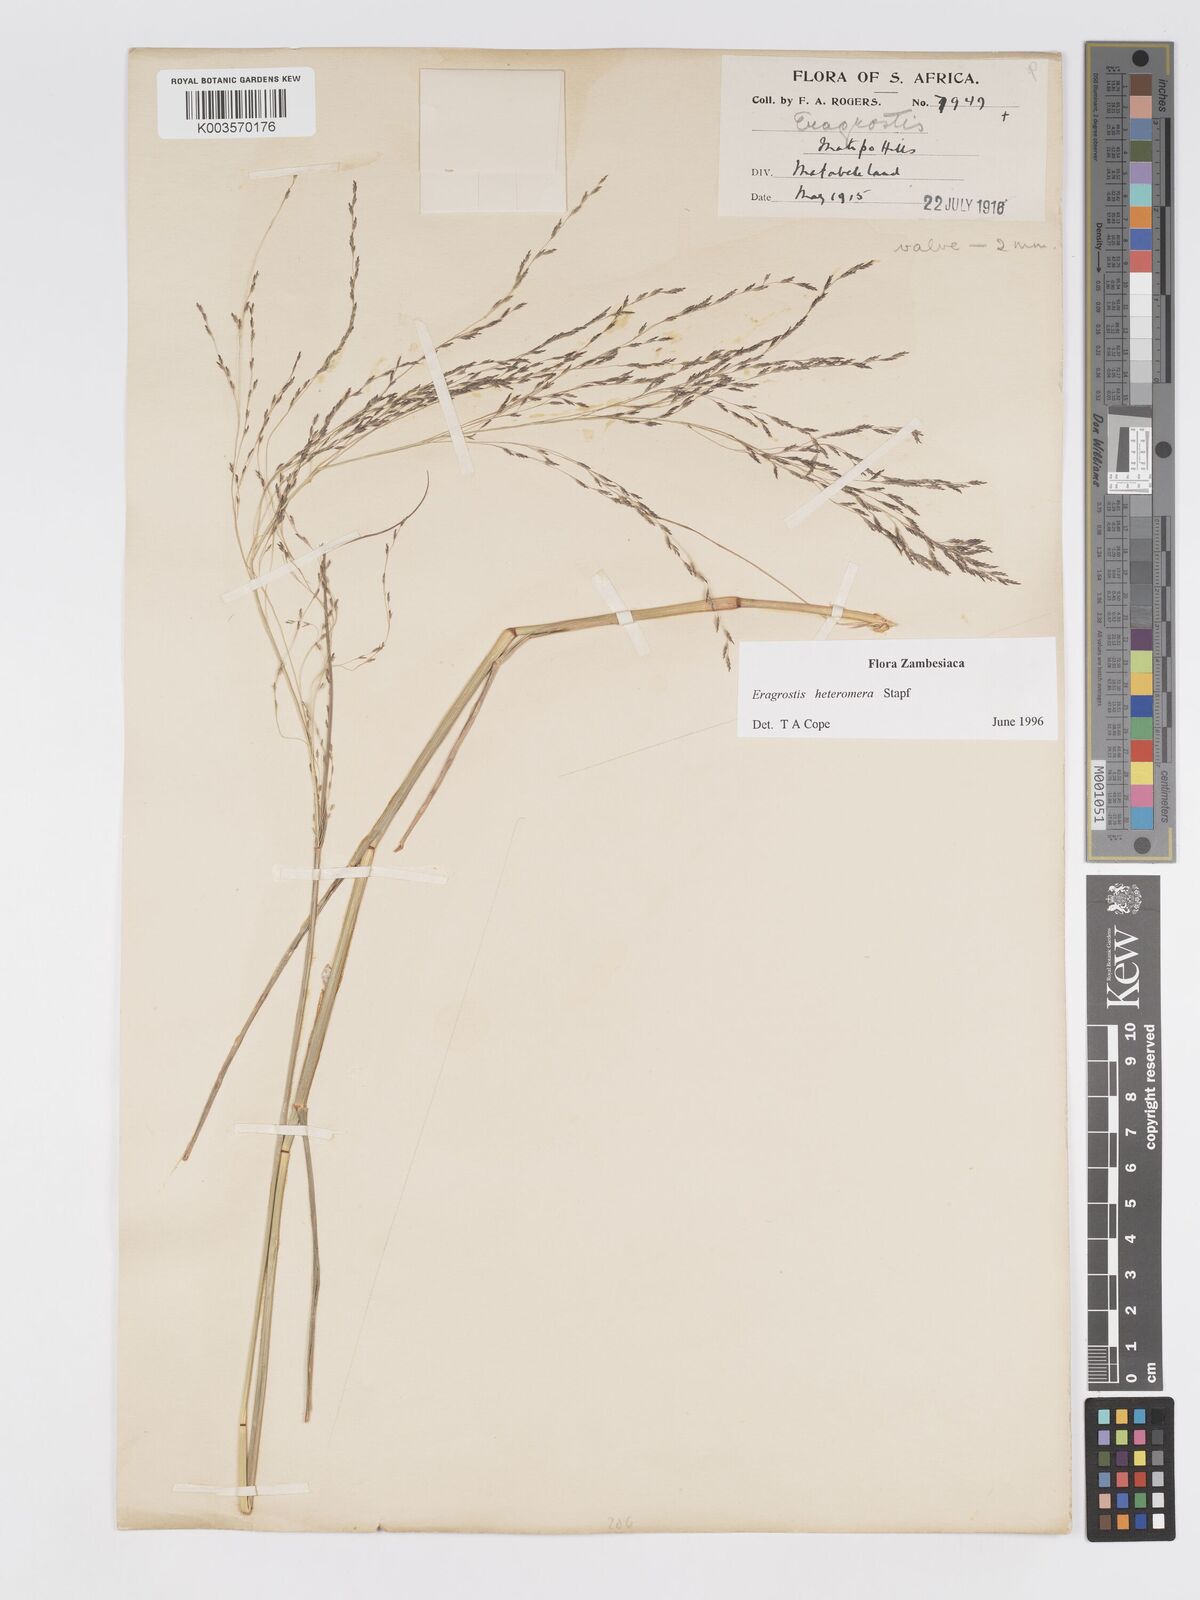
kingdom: Plantae
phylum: Tracheophyta
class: Liliopsida
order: Poales
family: Poaceae
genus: Eragrostis
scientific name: Eragrostis heteromera
